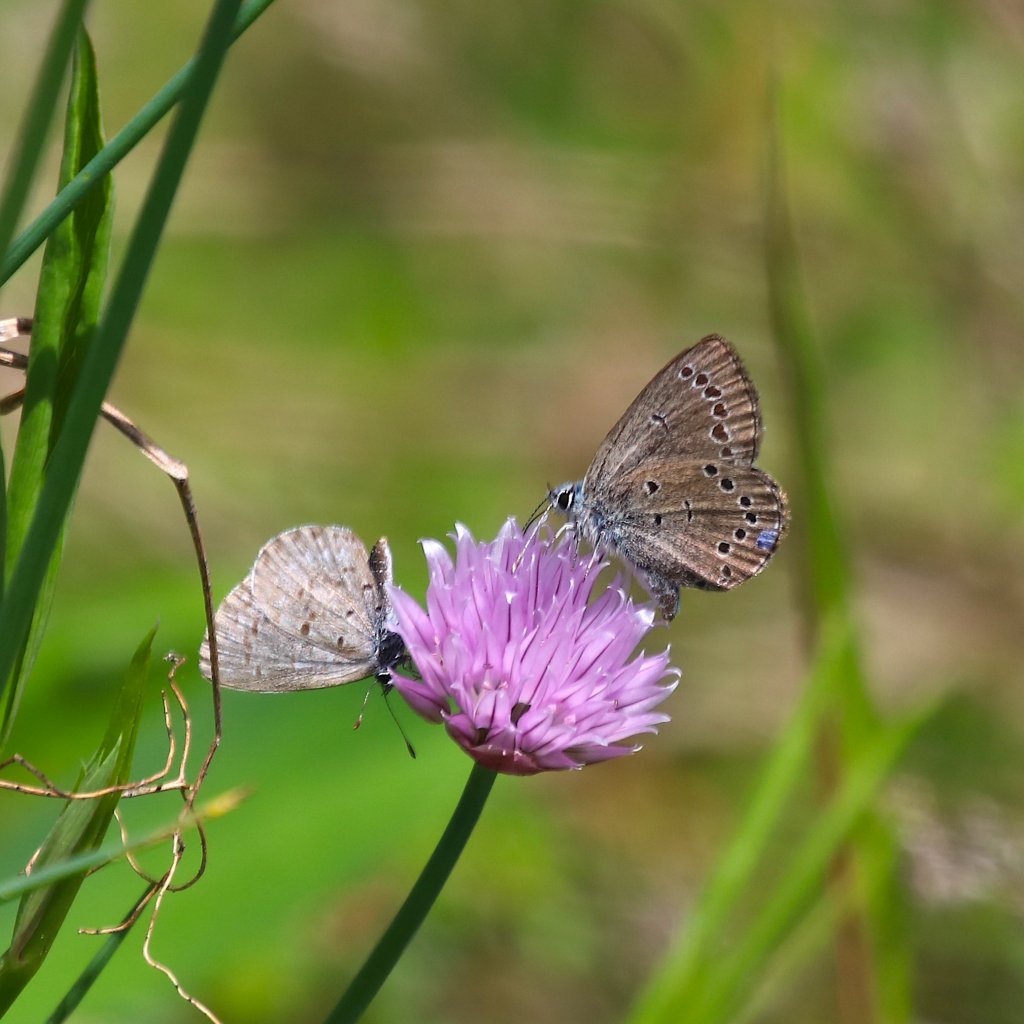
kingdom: Animalia
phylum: Arthropoda
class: Insecta
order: Lepidoptera
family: Lycaenidae
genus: Glaucopsyche
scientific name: Glaucopsyche lygdamus
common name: Silvery Blue
